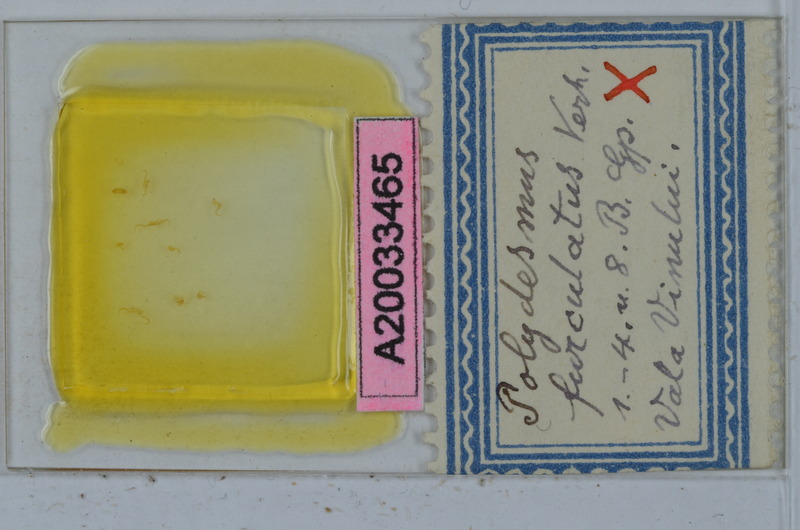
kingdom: Animalia
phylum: Arthropoda
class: Diplopoda
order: Polydesmida
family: Polydesmidae
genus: Polydesmus
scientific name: Polydesmus burzenlandicus
